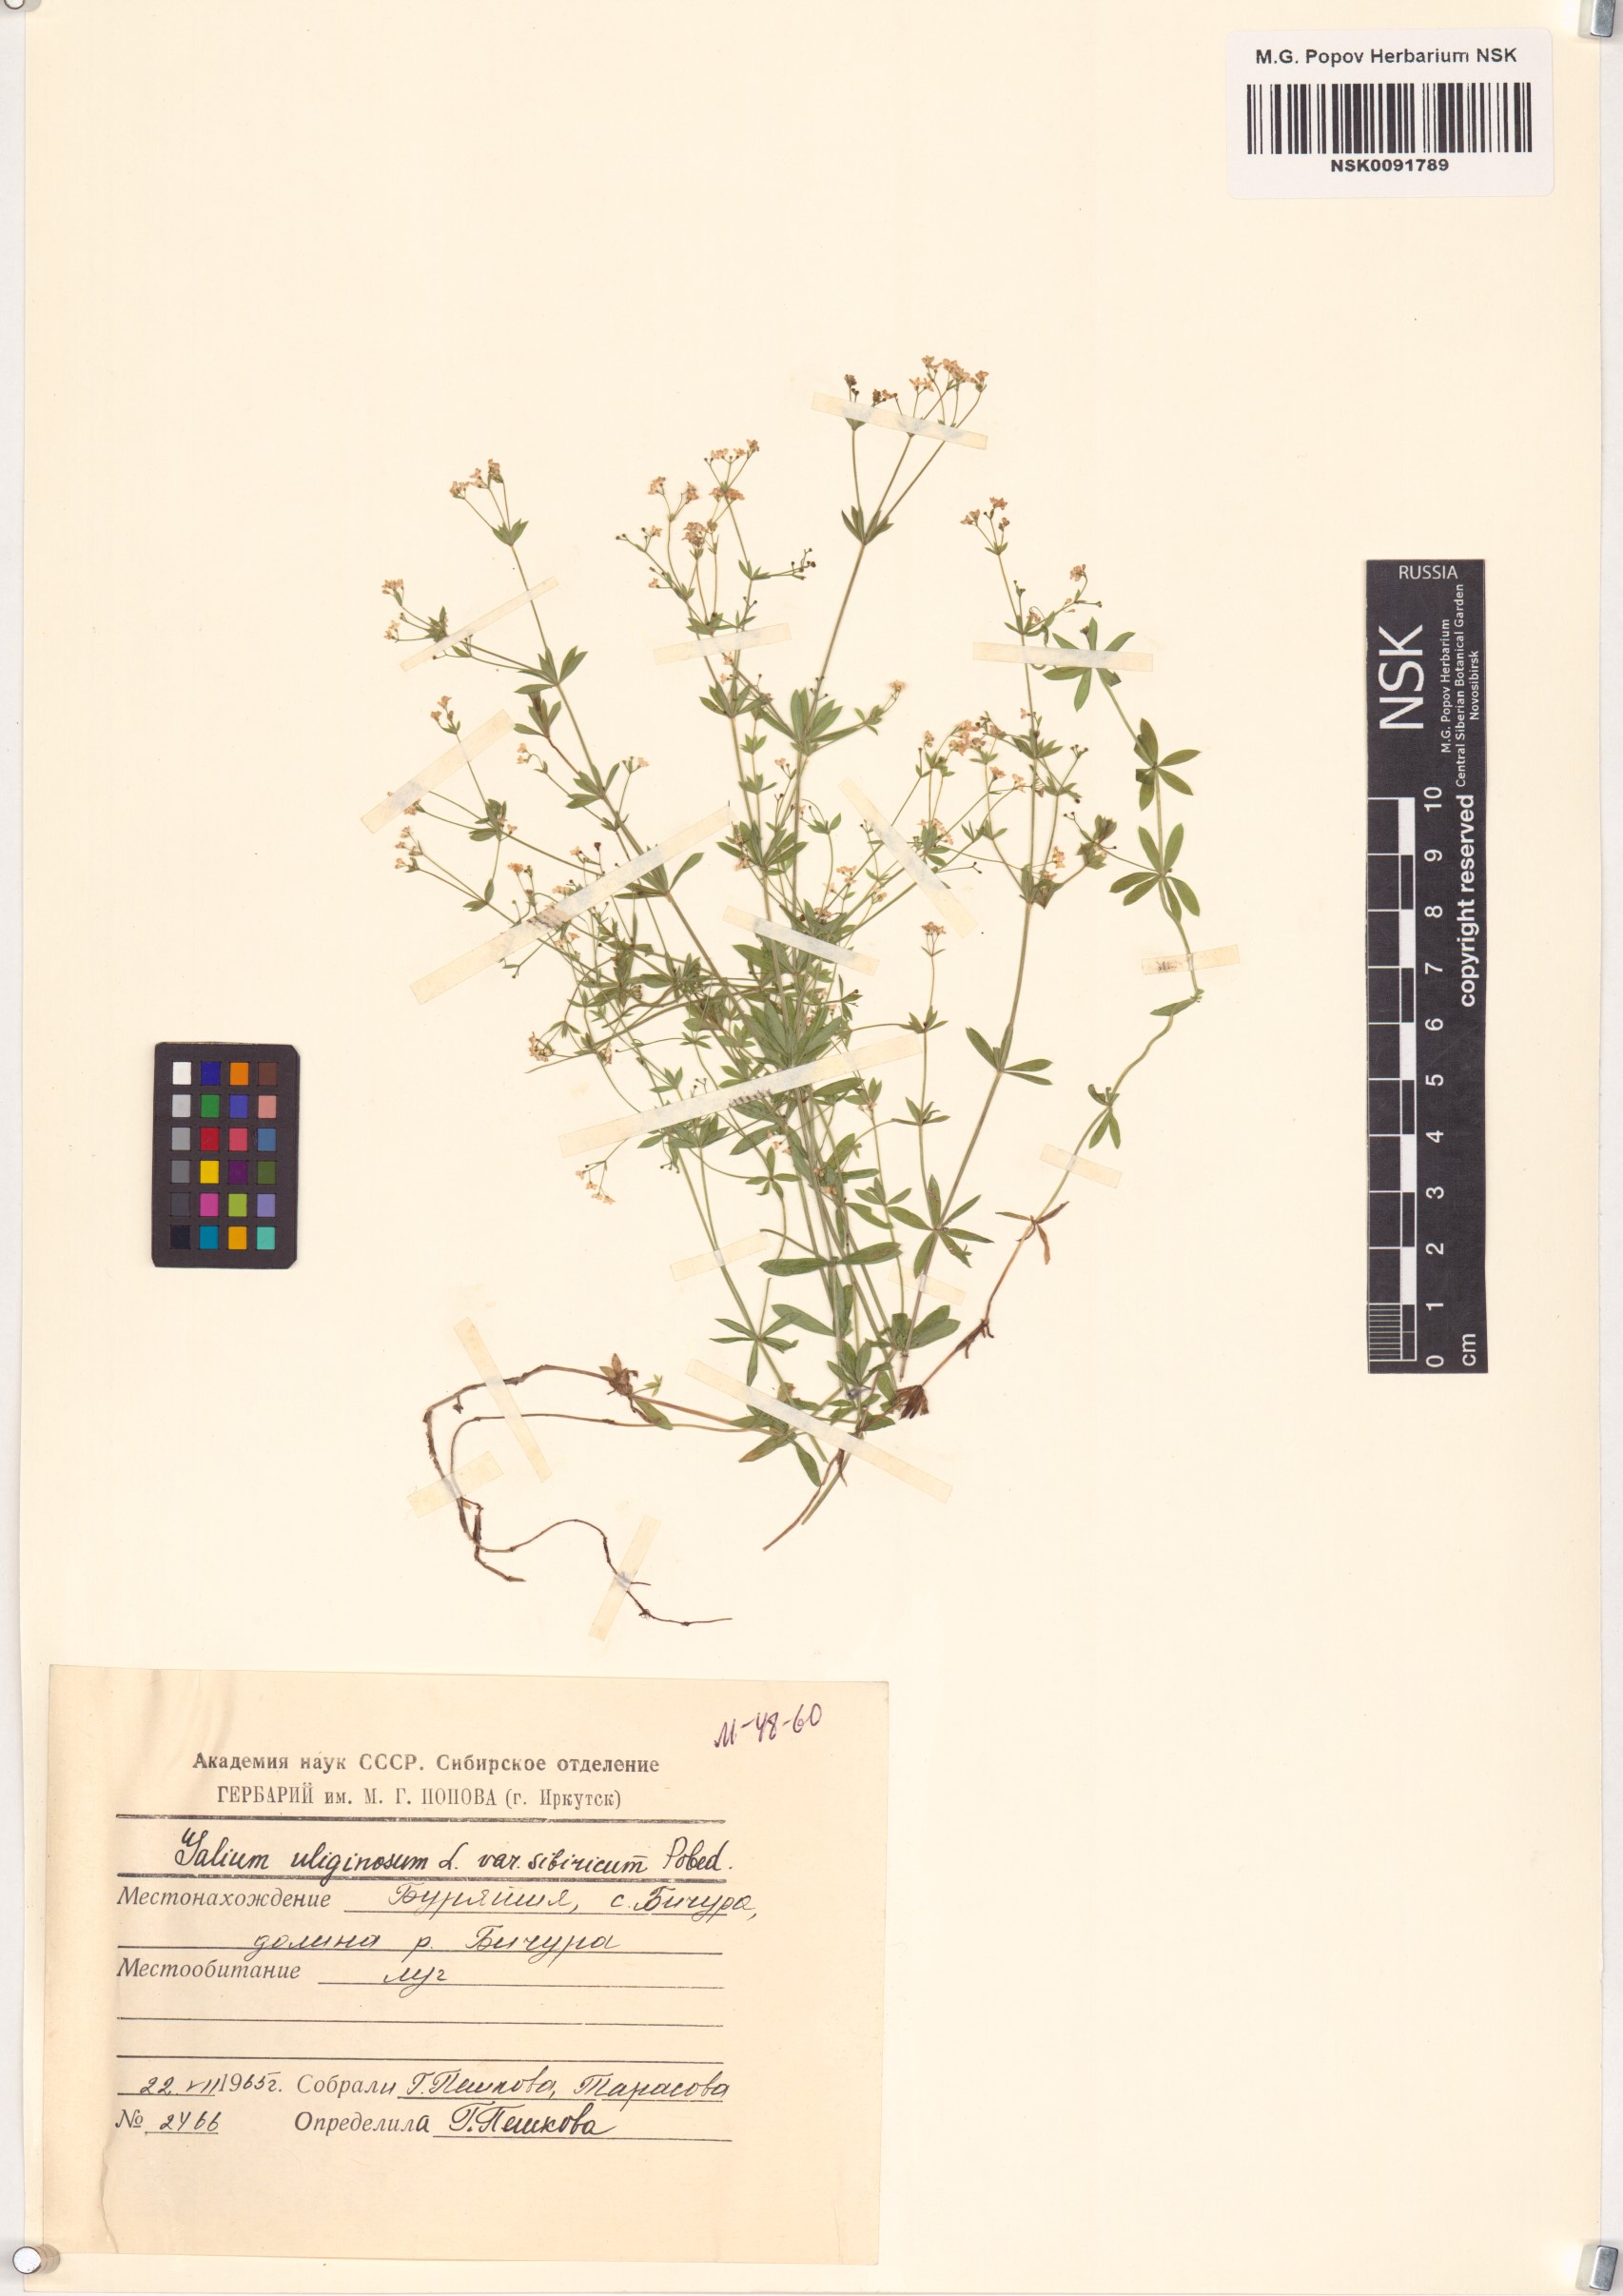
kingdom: Plantae
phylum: Tracheophyta
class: Magnoliopsida
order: Gentianales
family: Rubiaceae
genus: Galium
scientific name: Galium uliginosum
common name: Fen bedstraw
